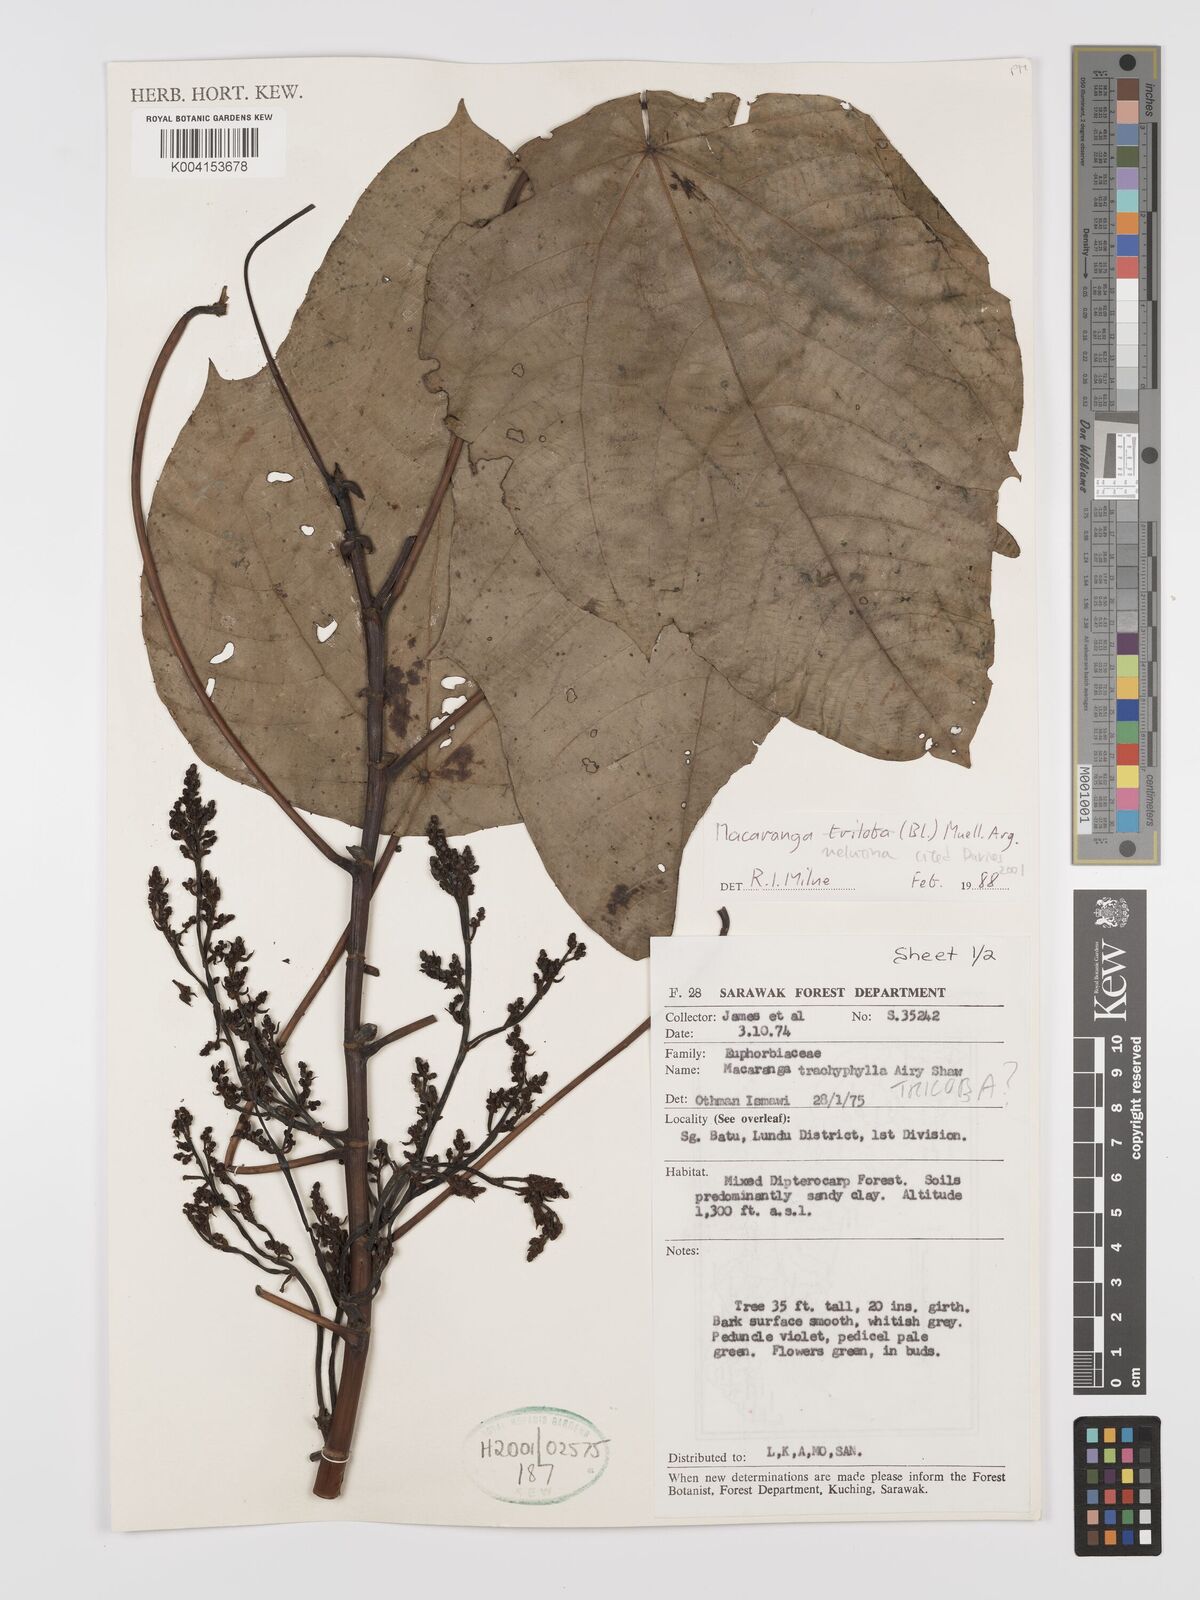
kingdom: Plantae
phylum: Tracheophyta
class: Magnoliopsida
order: Malpighiales
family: Euphorbiaceae
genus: Macaranga
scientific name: Macaranga triloba
